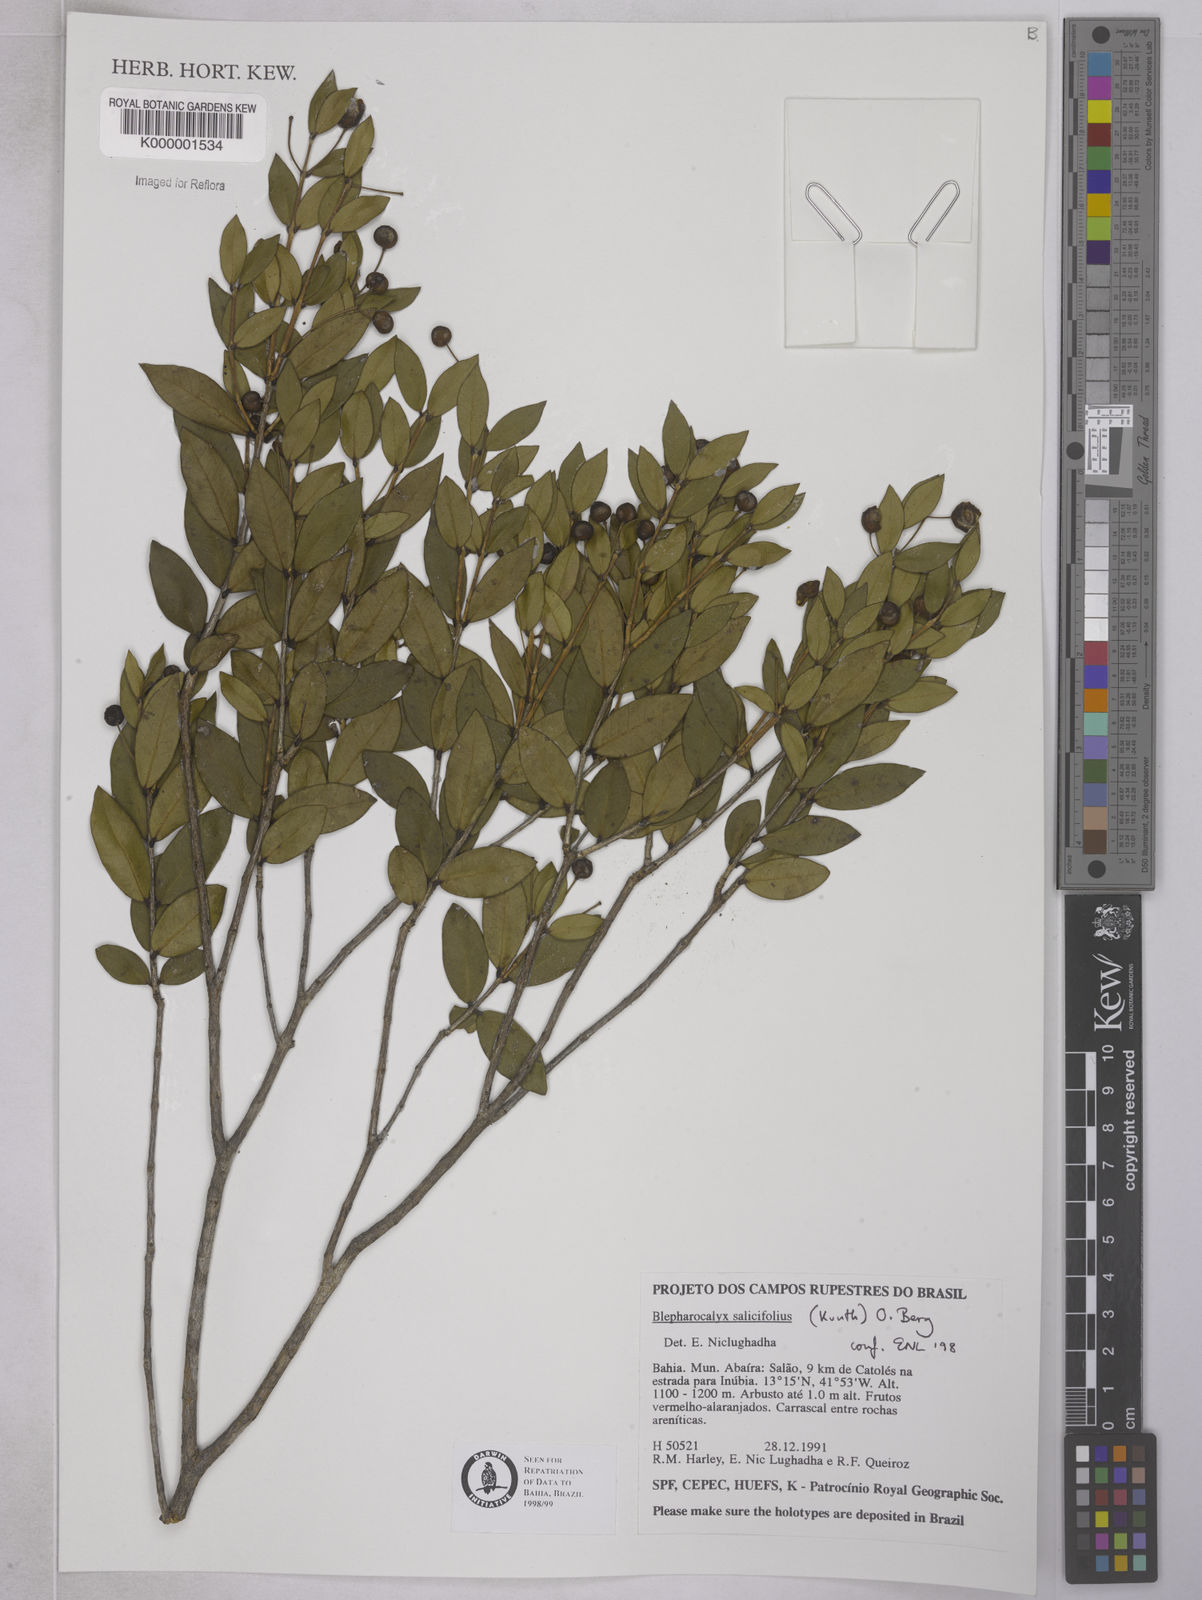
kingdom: Plantae
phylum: Tracheophyta
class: Magnoliopsida
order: Myrtales
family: Myrtaceae
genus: Blepharocalyx
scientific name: Blepharocalyx salicifolius
